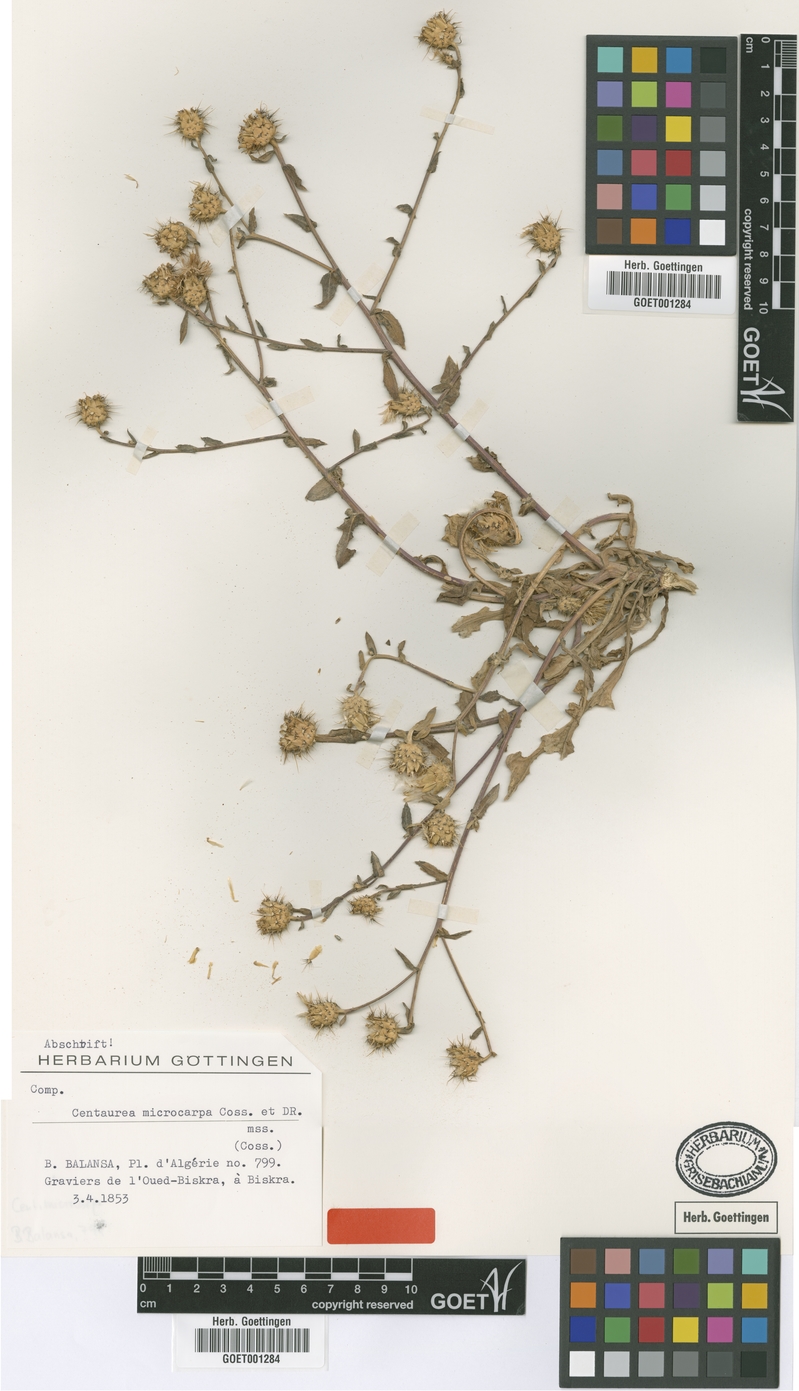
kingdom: Plantae
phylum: Tracheophyta
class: Magnoliopsida
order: Asterales
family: Asteraceae
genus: Centaurea
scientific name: Centaurea microcarpa
